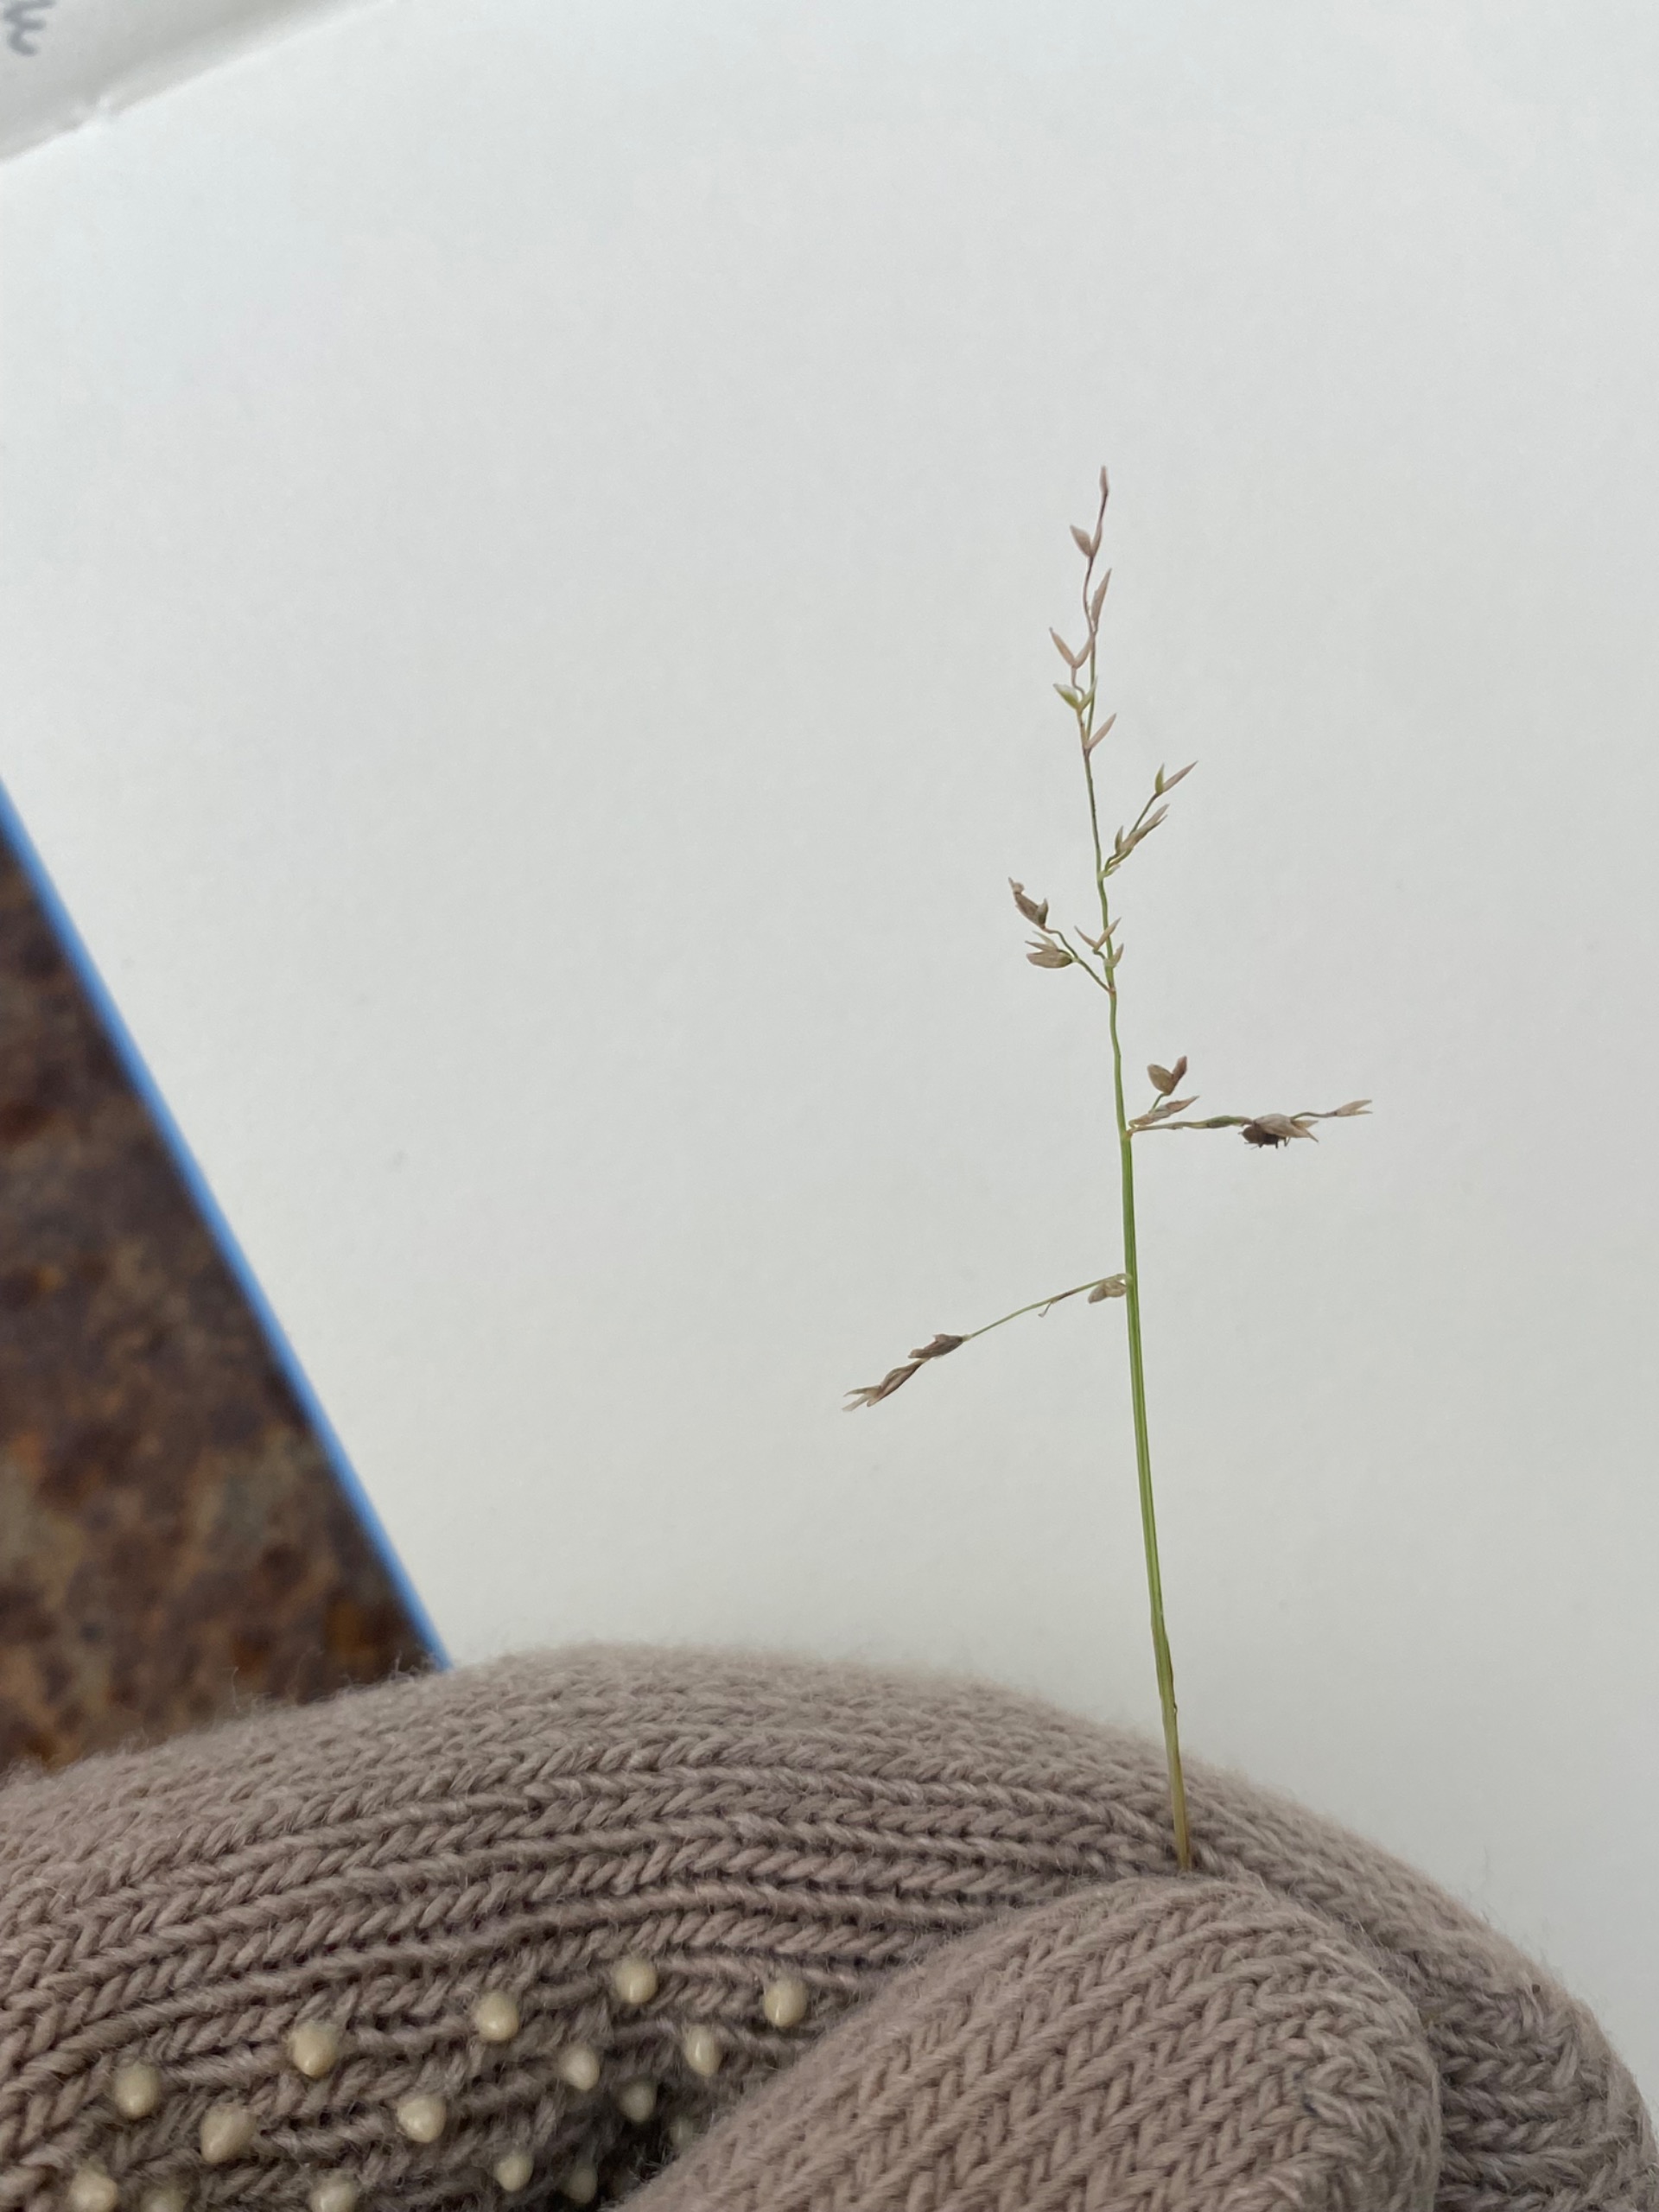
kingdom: Plantae
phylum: Tracheophyta
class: Liliopsida
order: Poales
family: Poaceae
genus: Poa
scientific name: Poa annua
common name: Enårig rapgræs
